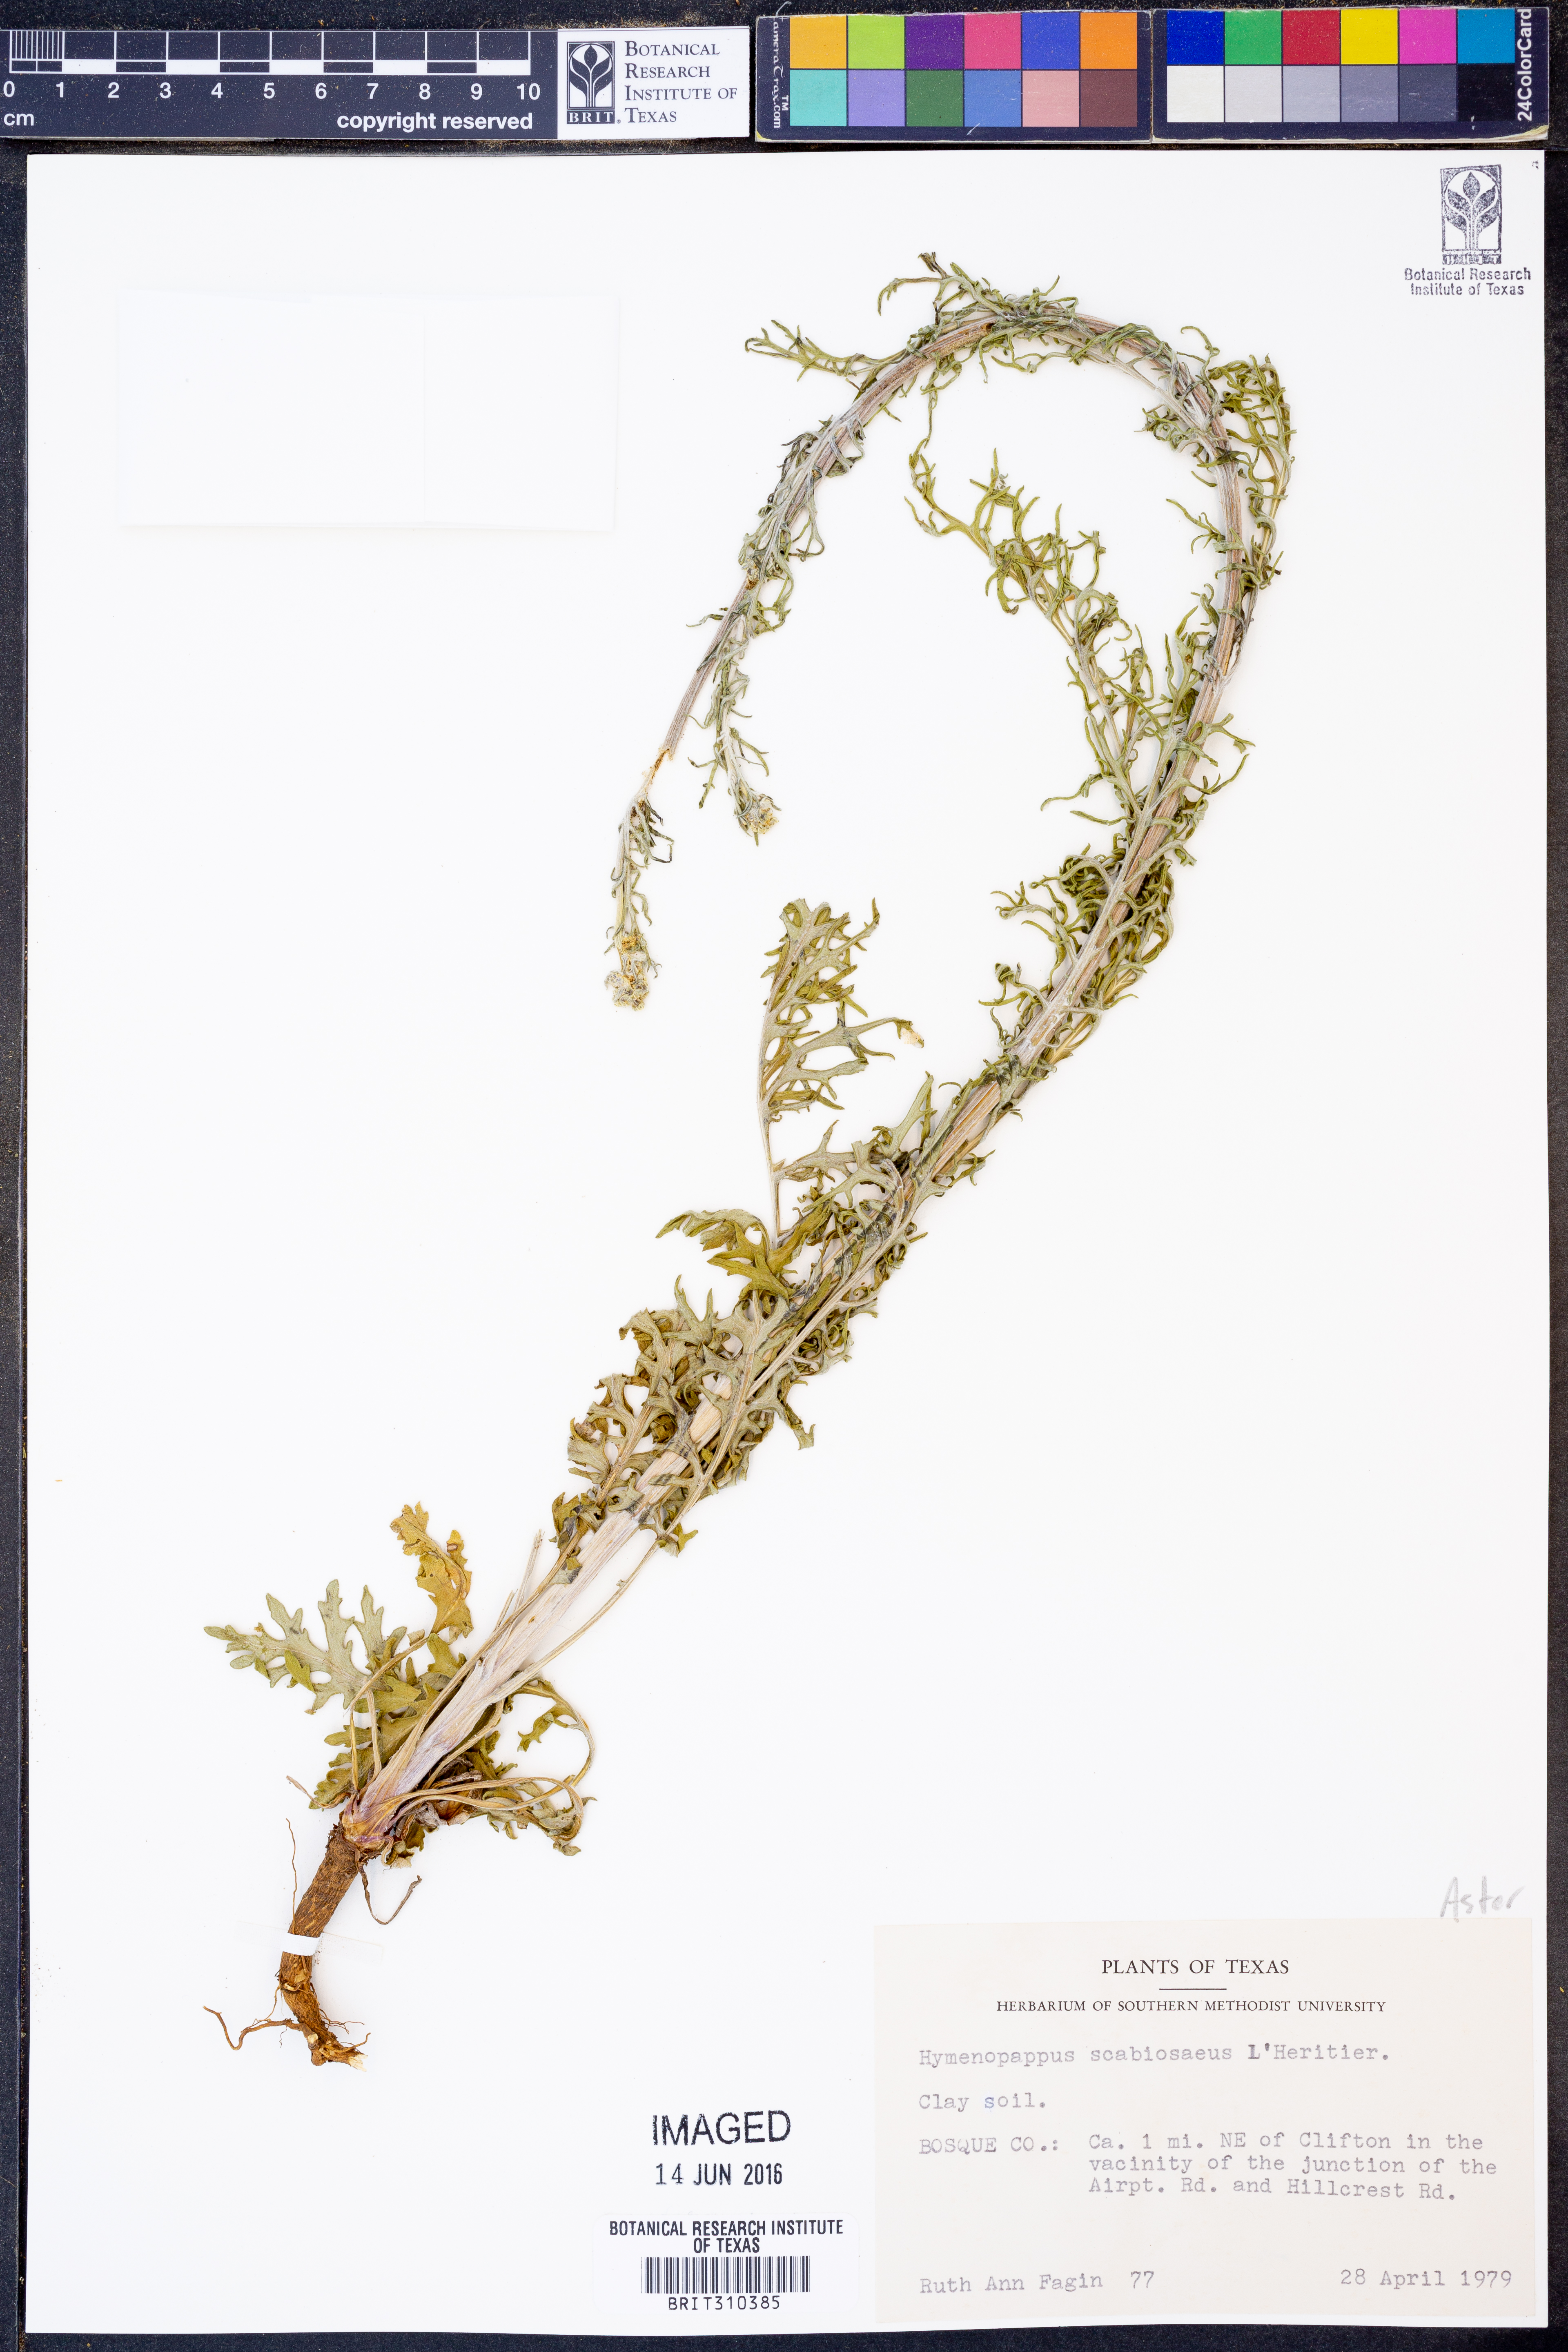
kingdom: Plantae
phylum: Tracheophyta
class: Magnoliopsida
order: Asterales
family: Asteraceae
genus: Hymenopappus
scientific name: Hymenopappus scabiosaeus
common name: Carolina woollywhite
